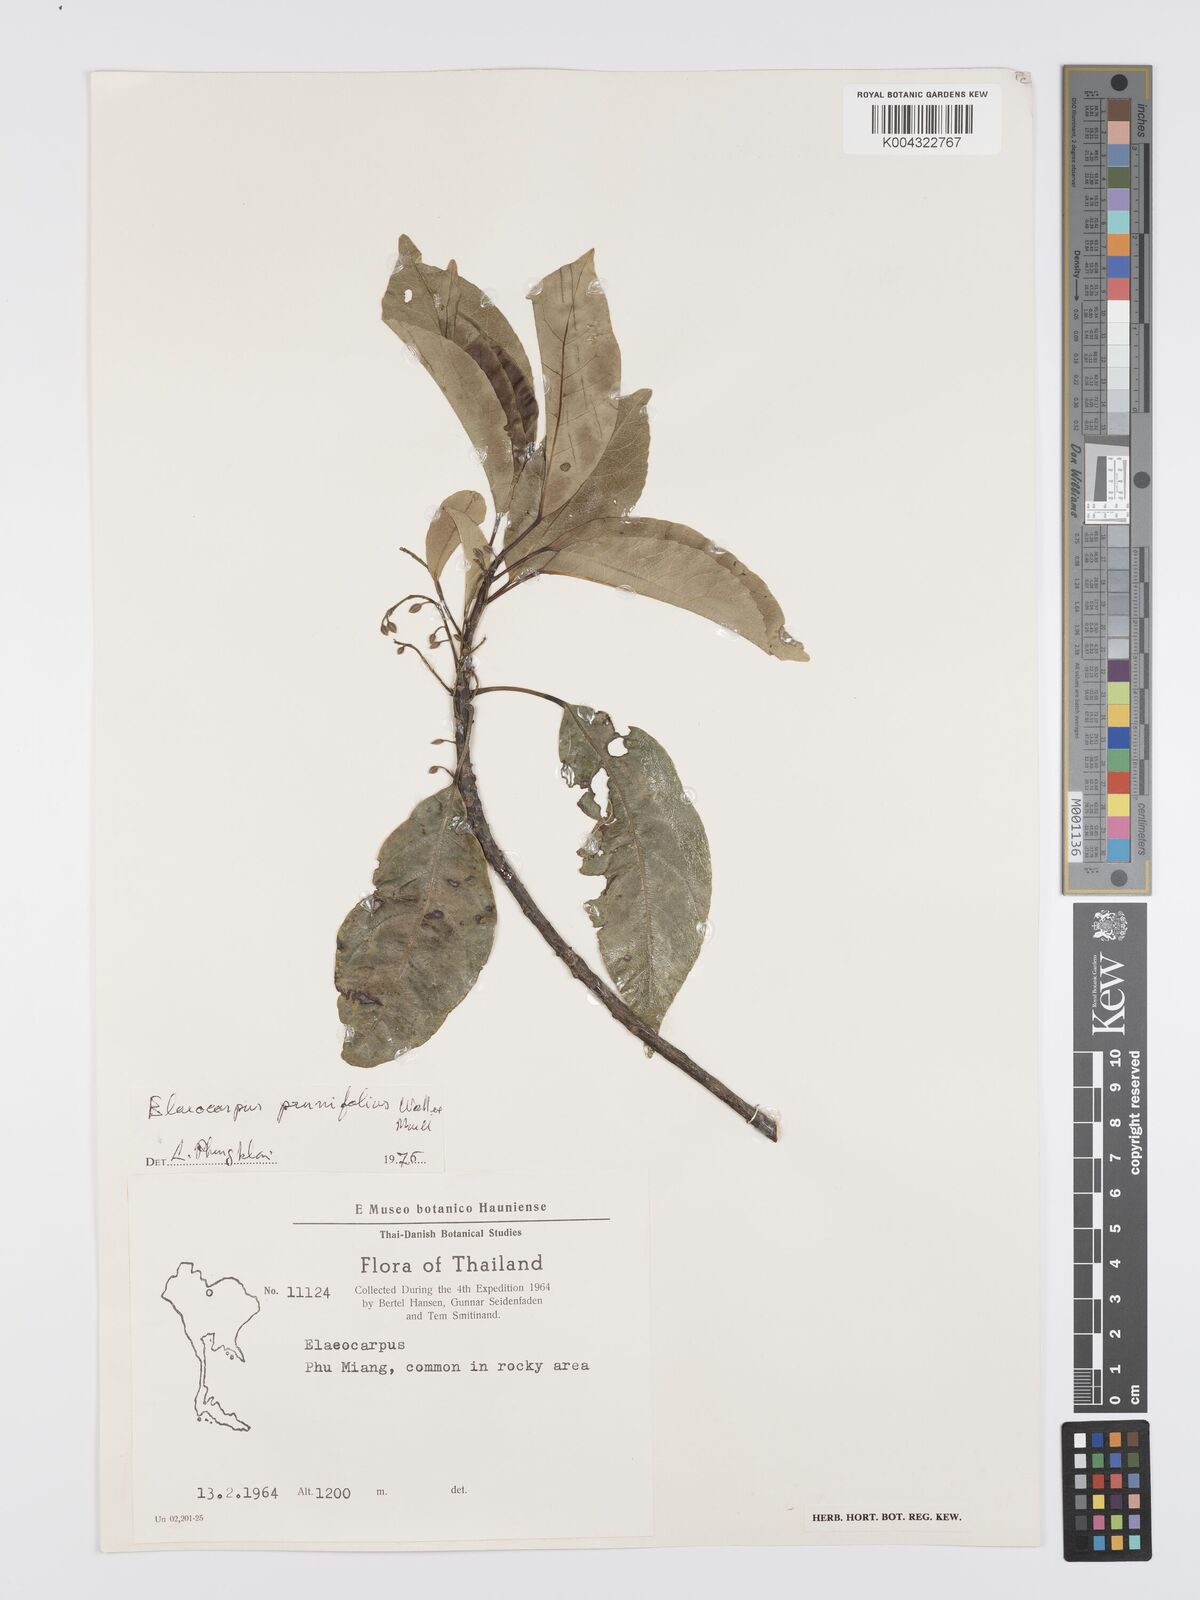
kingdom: Plantae
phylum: Tracheophyta
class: Magnoliopsida
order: Oxalidales
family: Elaeocarpaceae
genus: Elaeocarpus
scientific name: Elaeocarpus
